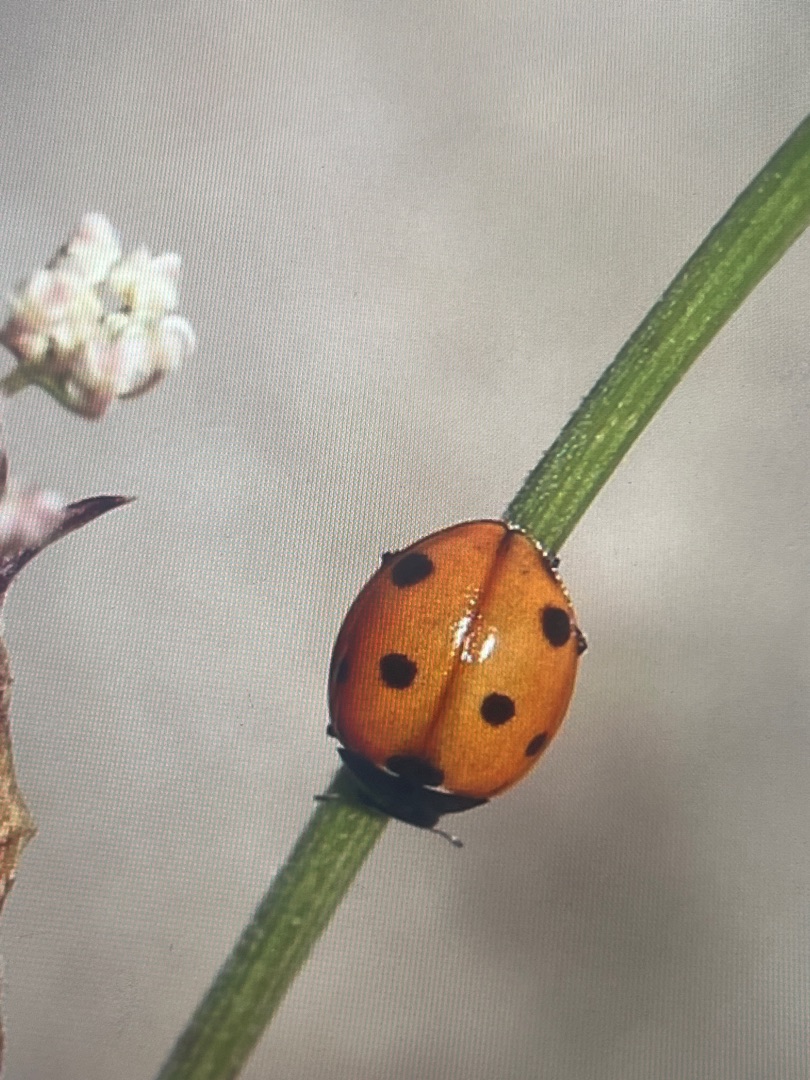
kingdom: Animalia
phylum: Arthropoda
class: Insecta
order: Coleoptera
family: Coccinellidae
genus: Coccinella
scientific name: Coccinella septempunctata
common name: Syvplettet mariehøne
